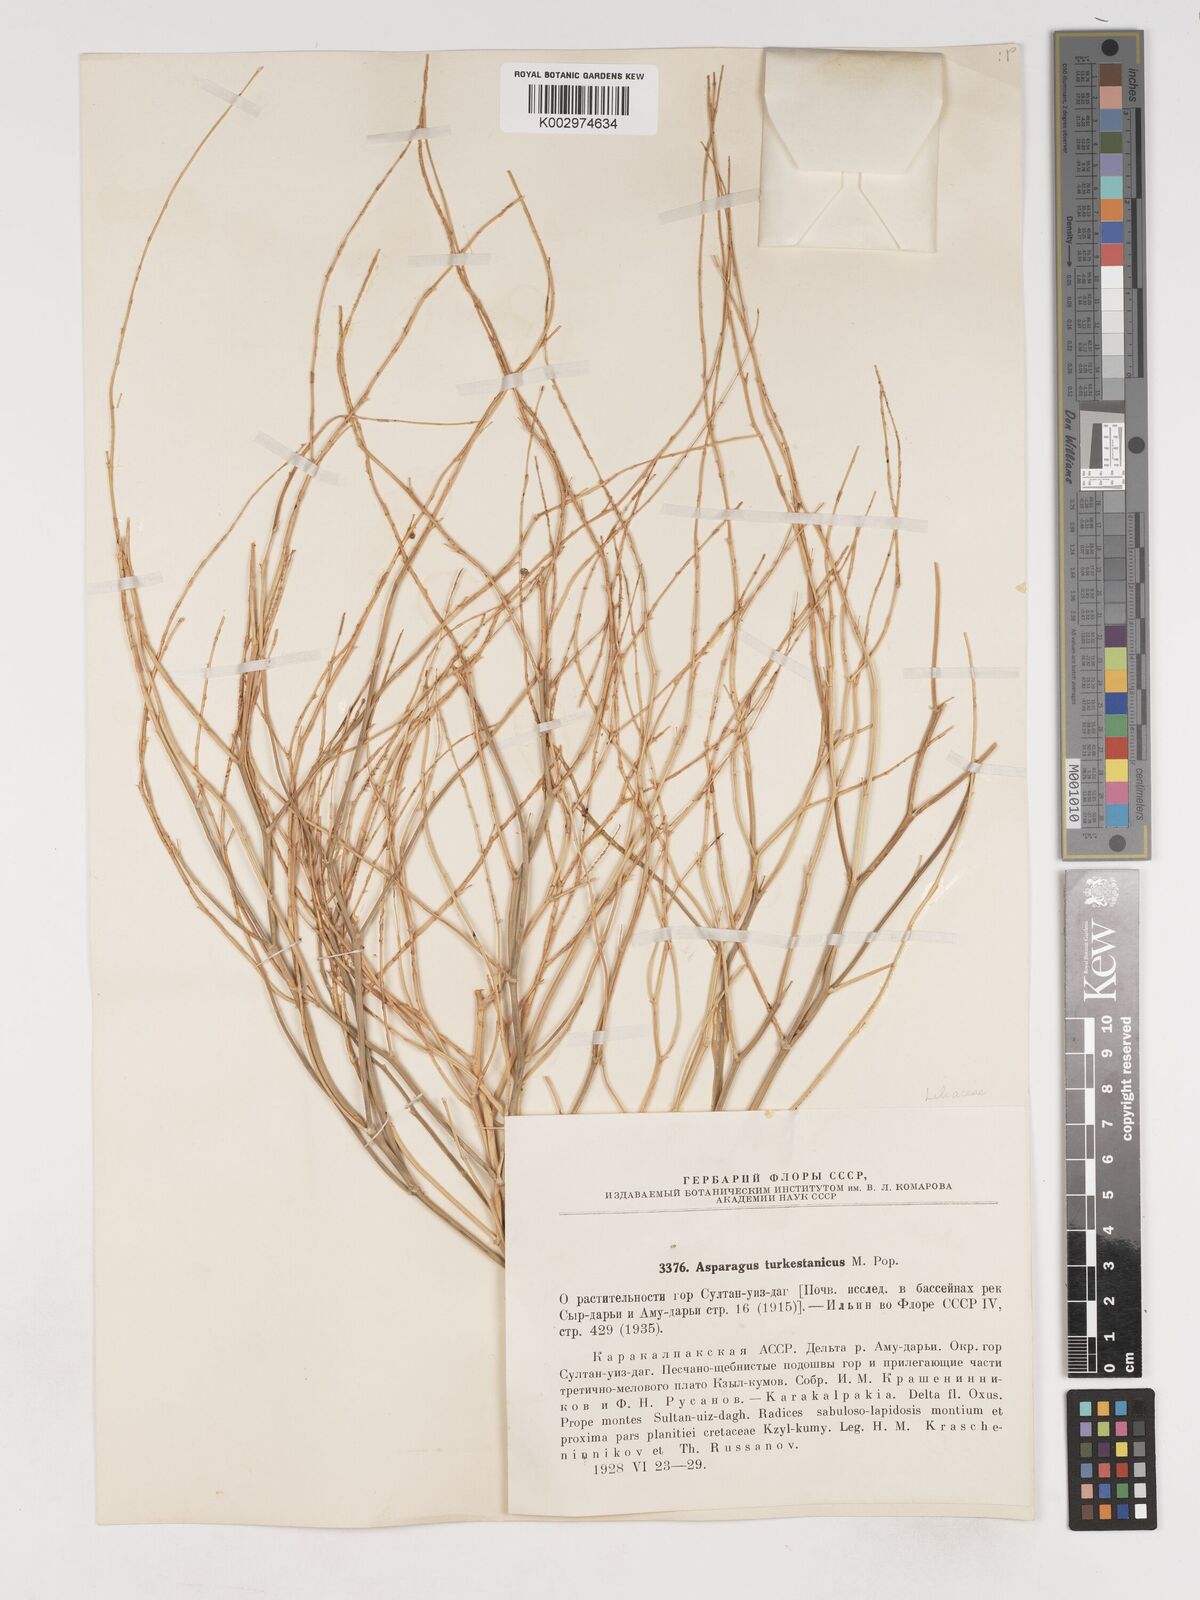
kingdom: Plantae
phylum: Tracheophyta
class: Liliopsida
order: Asparagales
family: Asparagaceae
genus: Asparagus
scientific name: Asparagus turkestanicus
